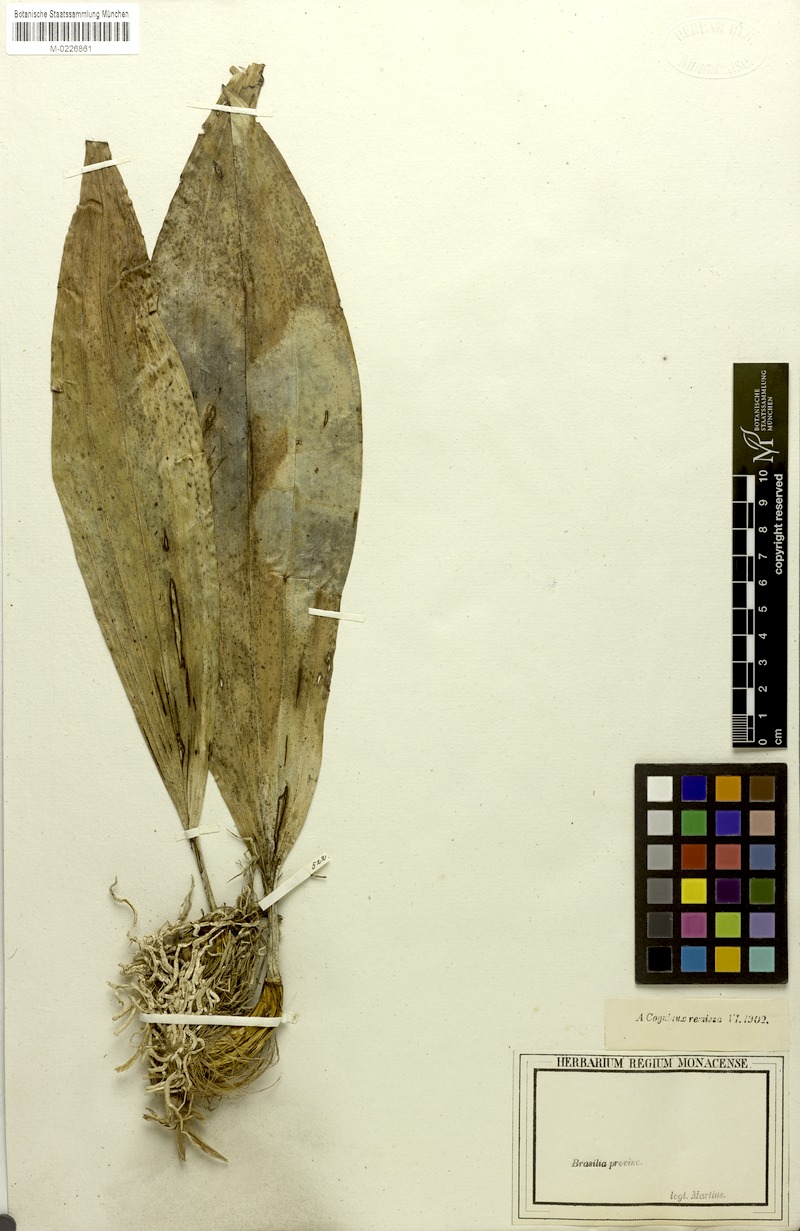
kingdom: Plantae
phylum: Tracheophyta
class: Liliopsida
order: Asparagales
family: Orchidaceae
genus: Stanhopea
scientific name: Stanhopea grandiflora
